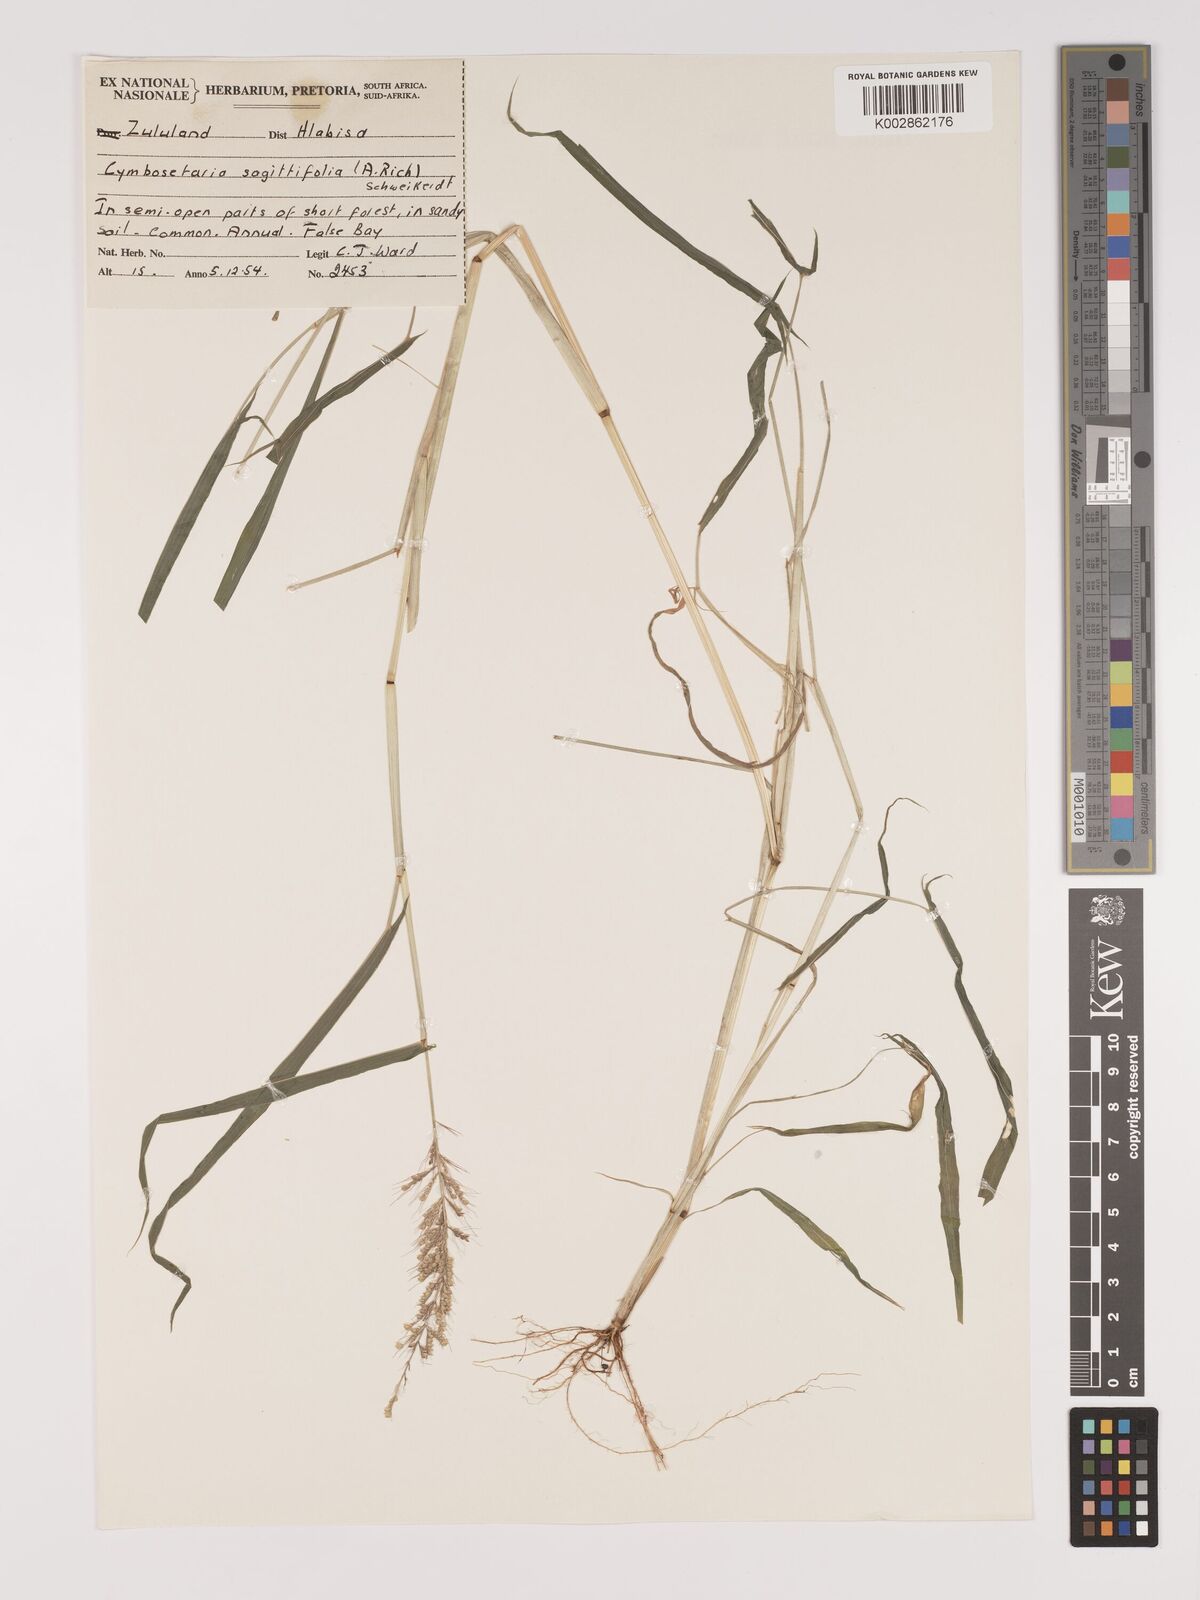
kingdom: Plantae
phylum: Tracheophyta
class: Liliopsida
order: Poales
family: Poaceae
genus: Setaria
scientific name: Setaria sagittifolia
